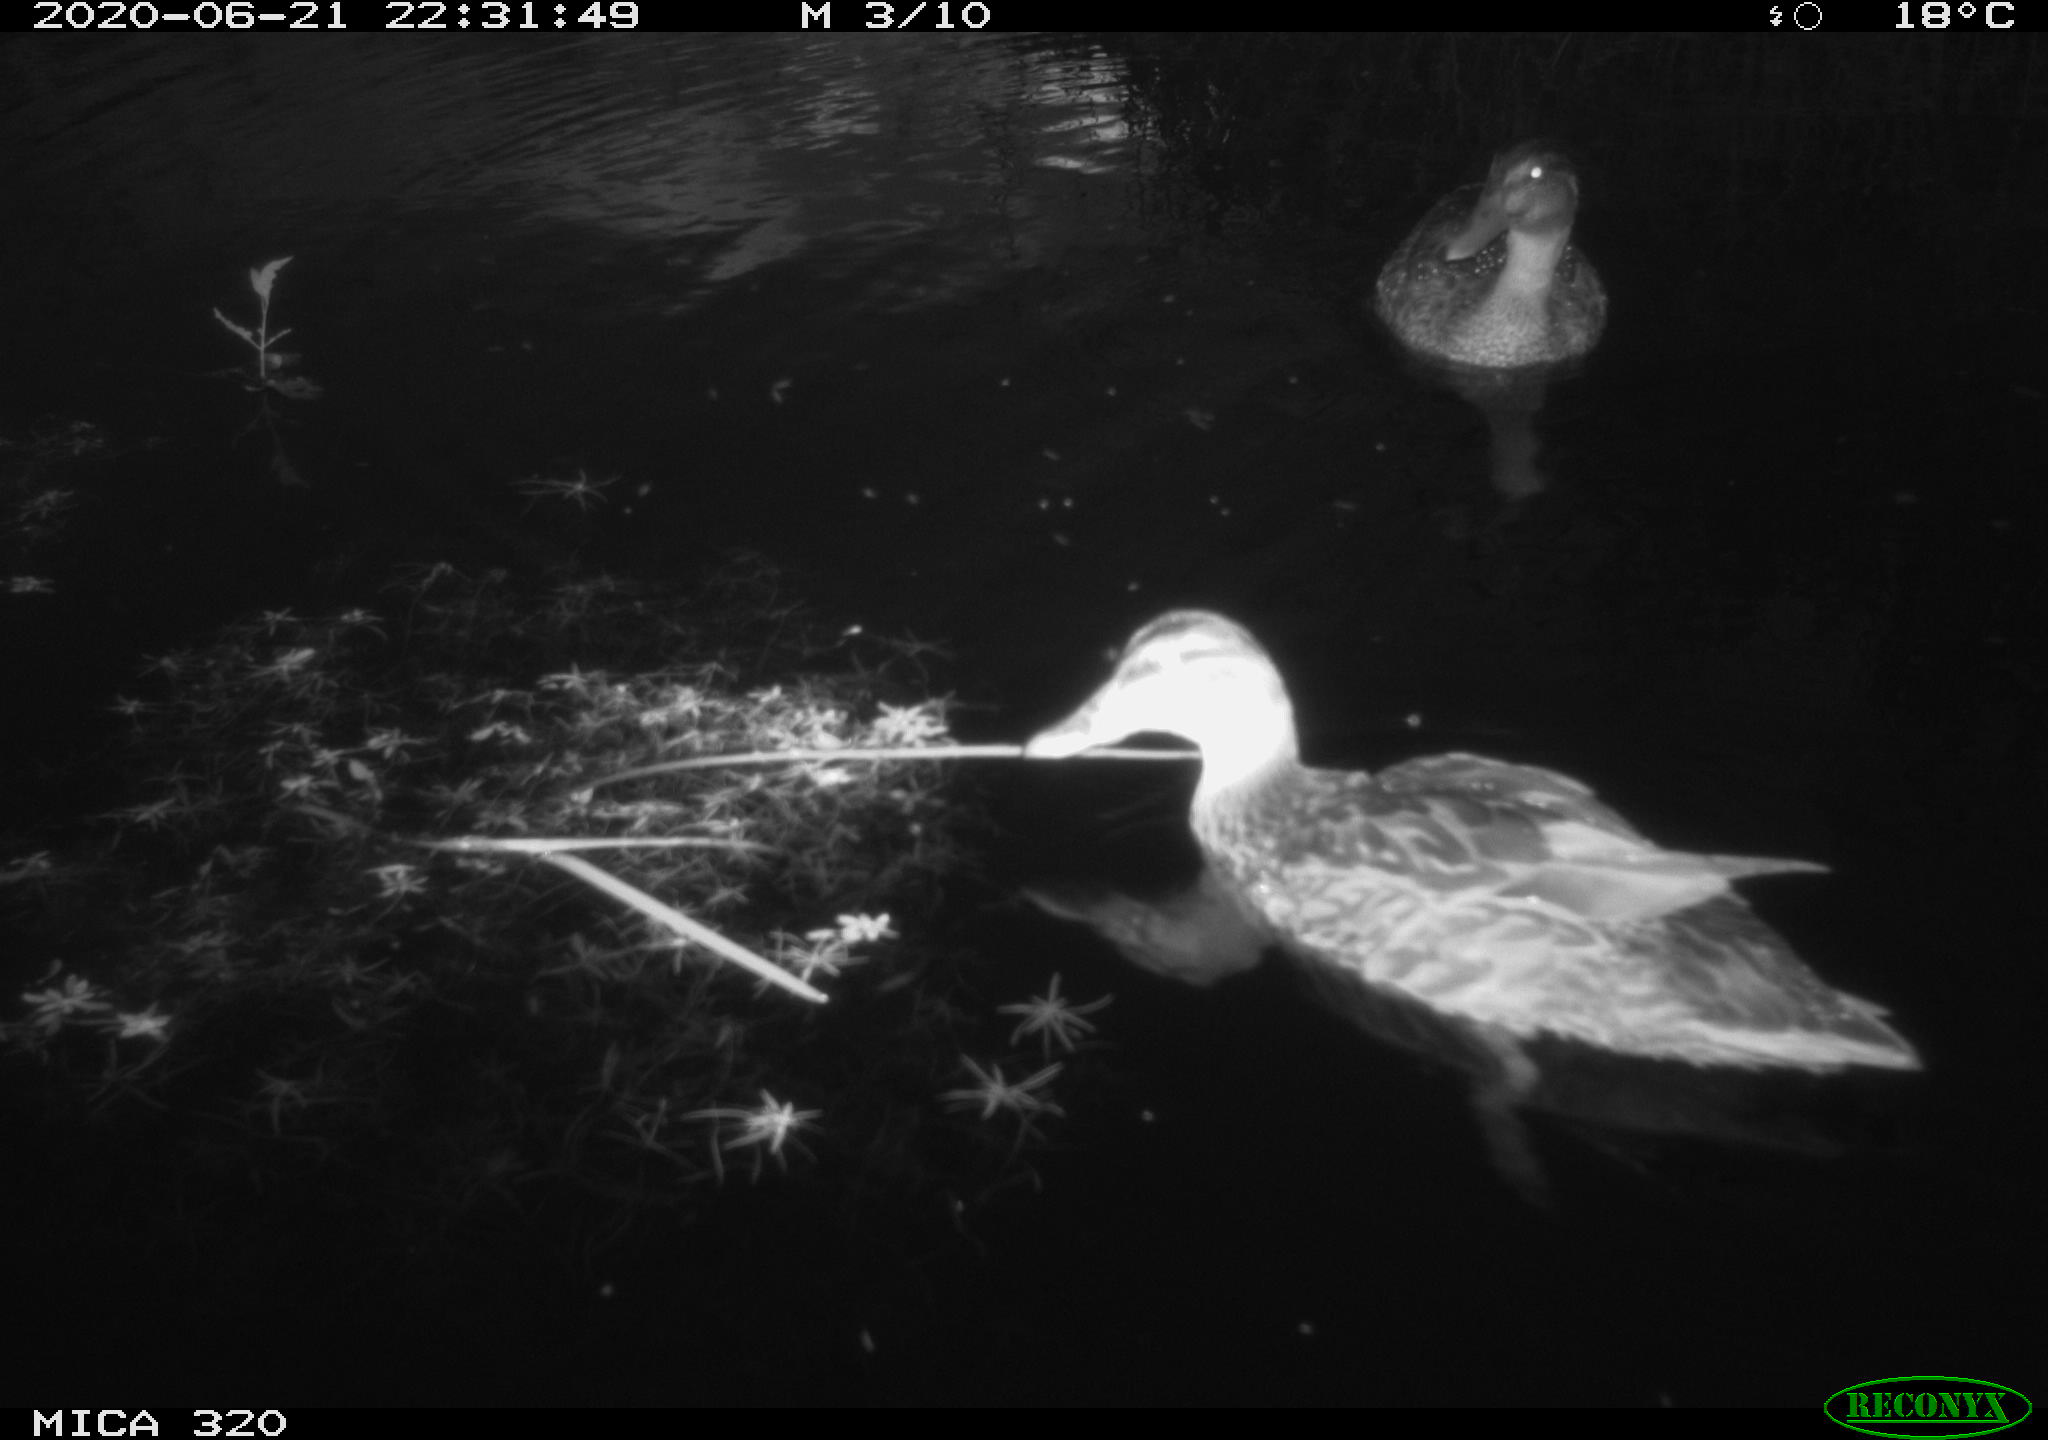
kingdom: Animalia
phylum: Chordata
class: Aves
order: Anseriformes
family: Anatidae
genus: Anas
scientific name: Anas platyrhynchos
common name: Mallard
